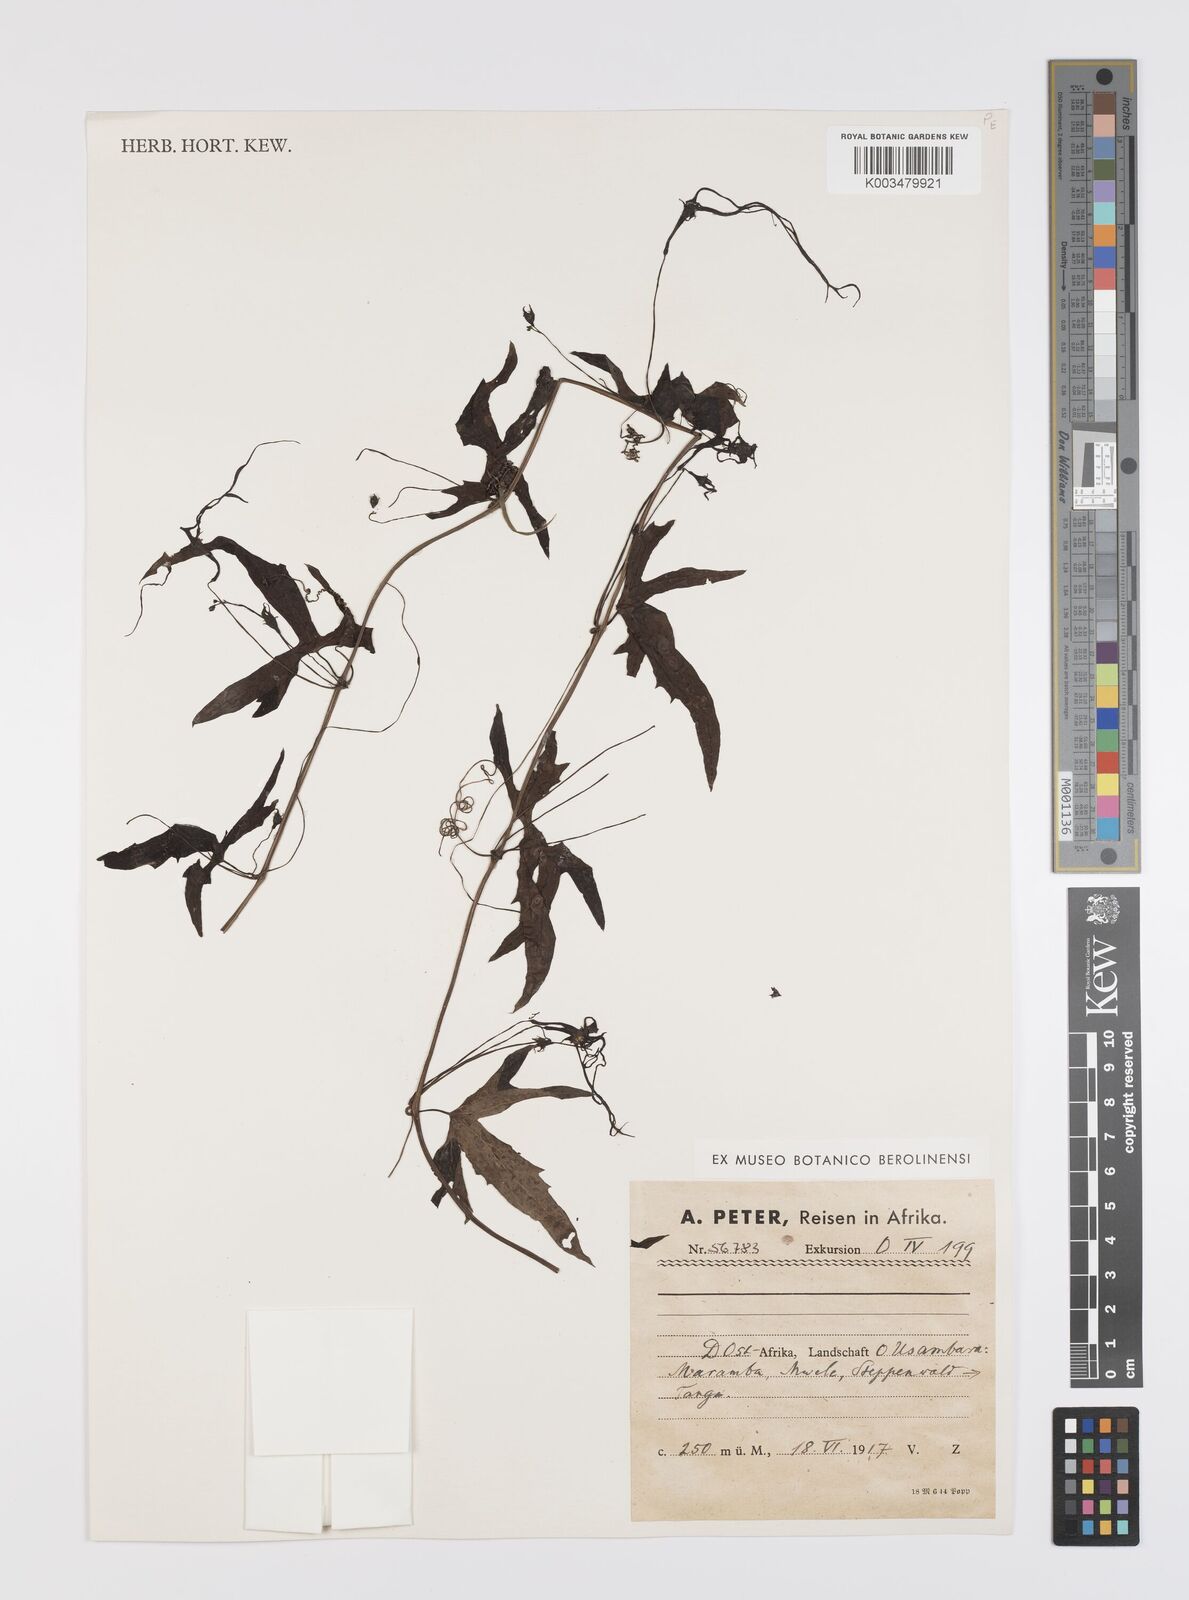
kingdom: Plantae
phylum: Tracheophyta
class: Magnoliopsida
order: Cucurbitales
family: Cucurbitaceae
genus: Trochomeria
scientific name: Trochomeria macrocarpa
